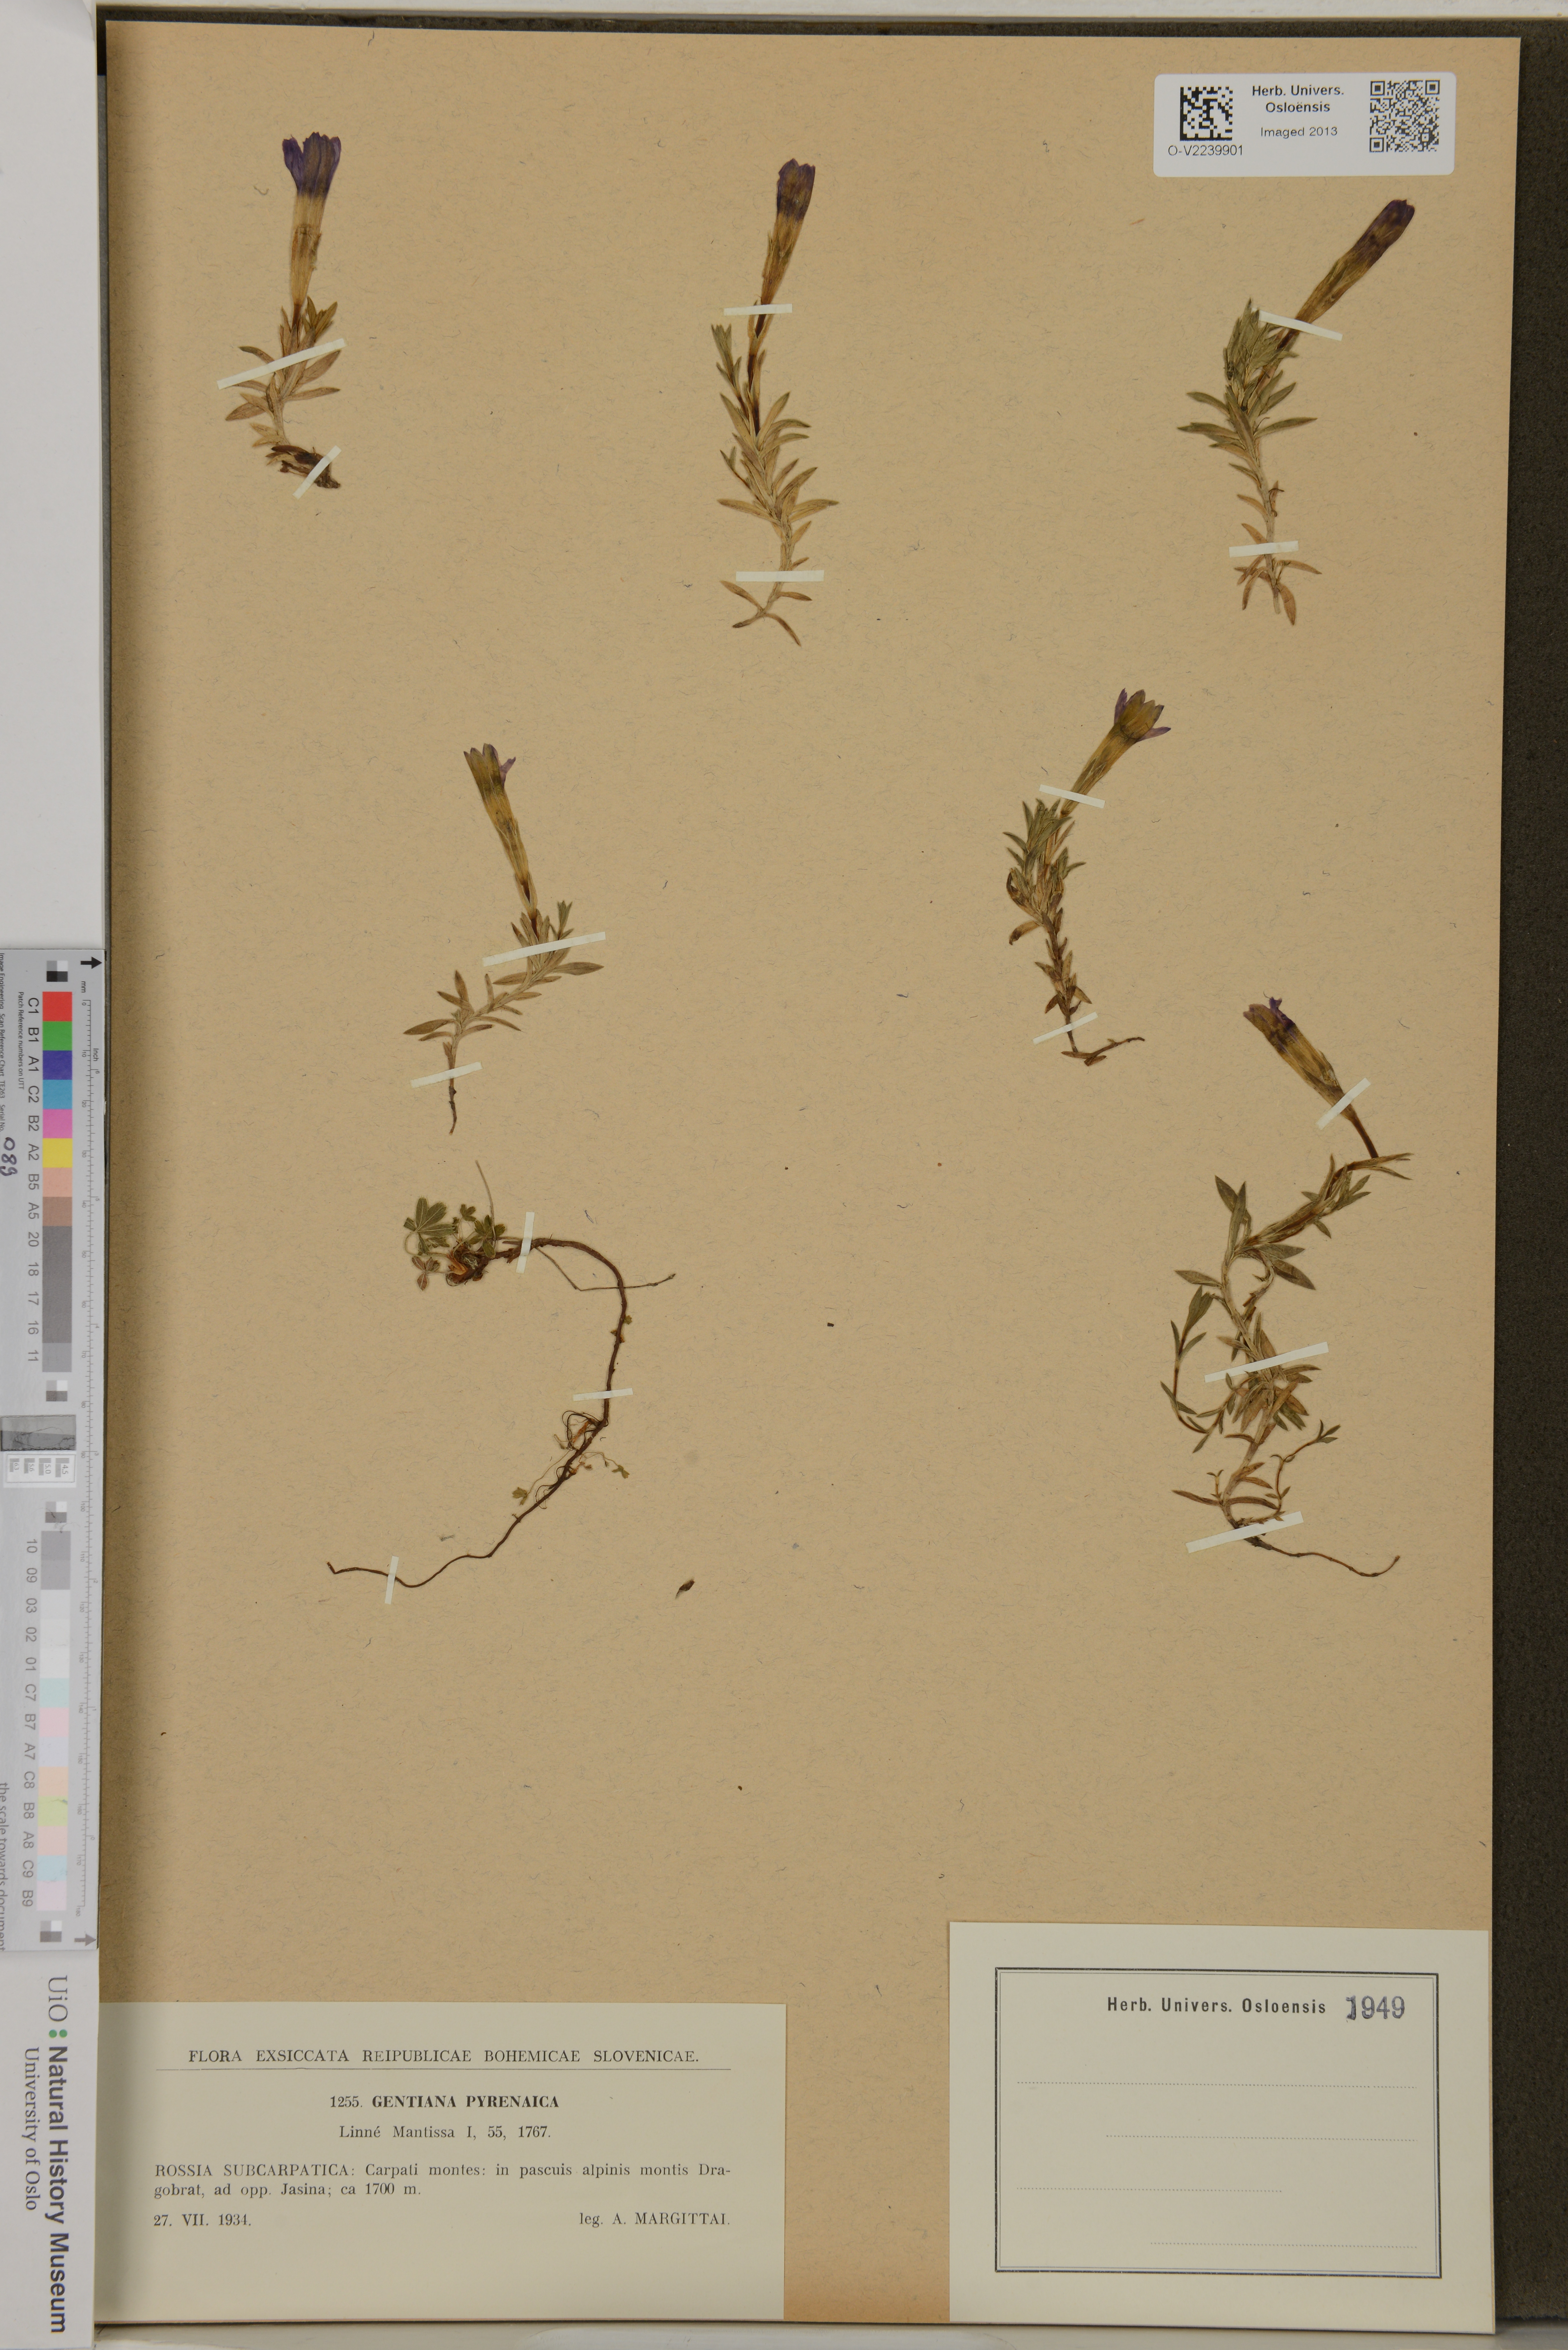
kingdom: Plantae
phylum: Tracheophyta
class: Magnoliopsida
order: Gentianales
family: Gentianaceae
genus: Gentiana
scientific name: Gentiana pyrenaica
